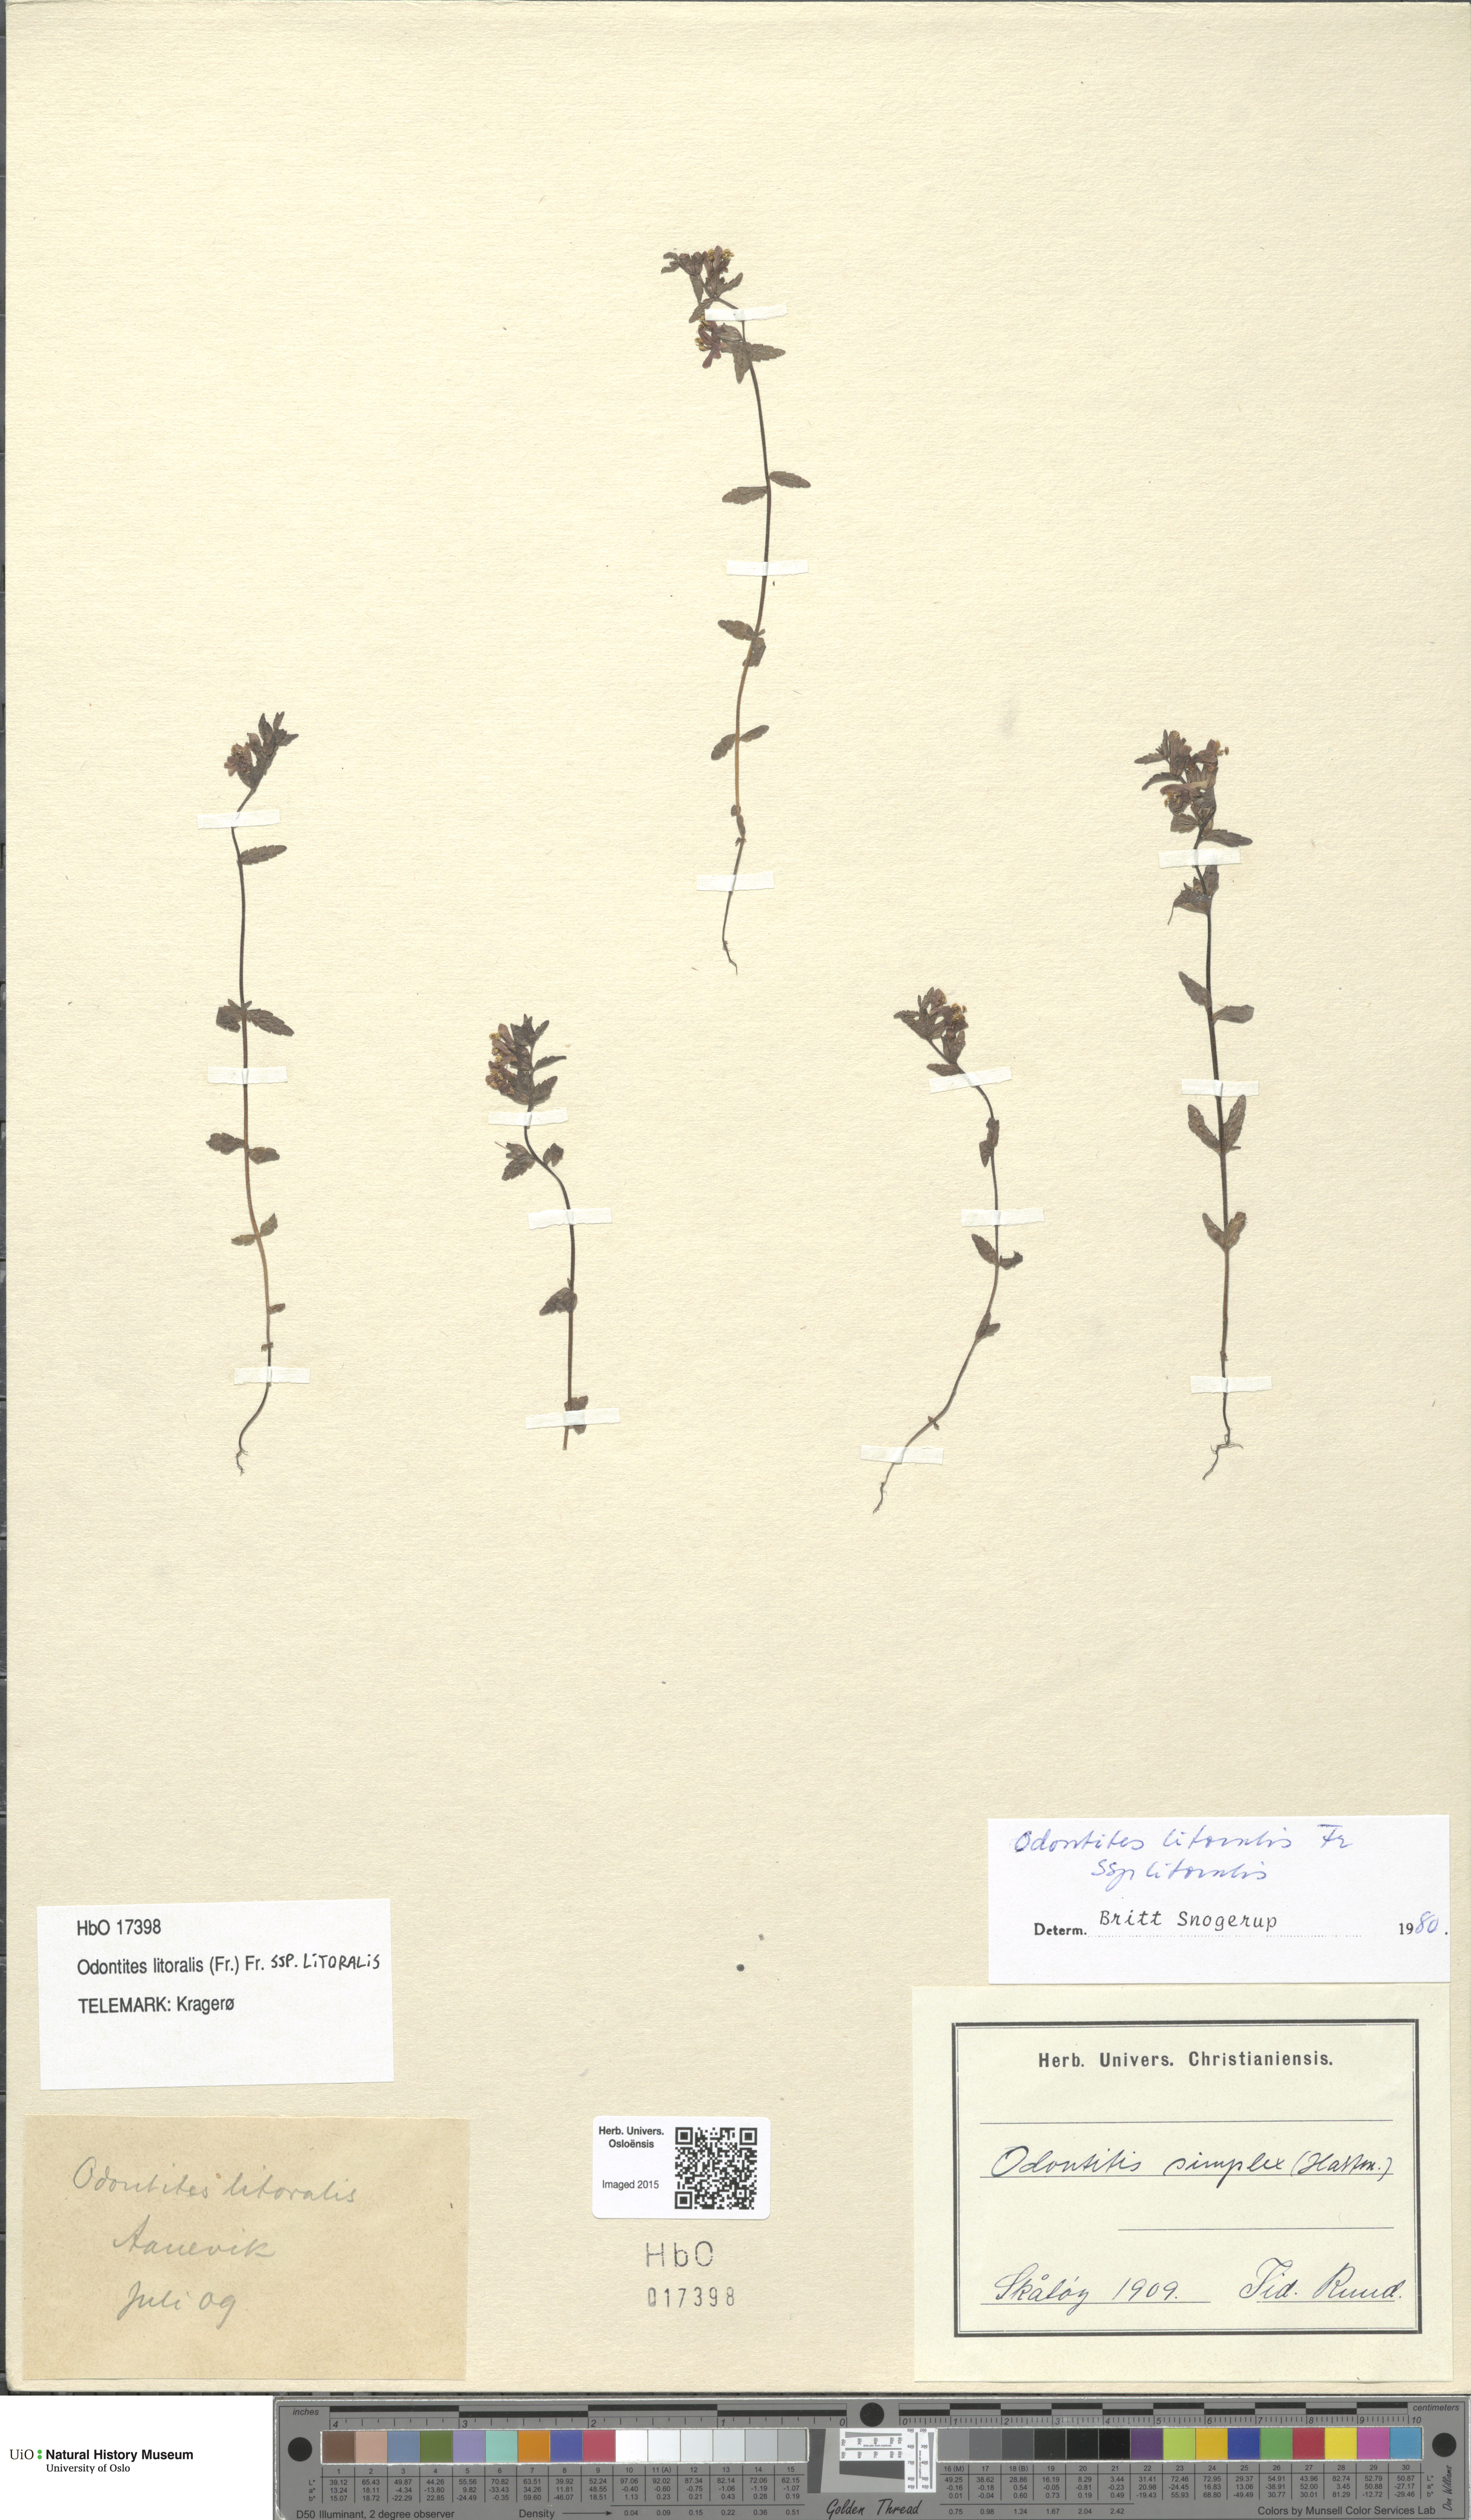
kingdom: Plantae
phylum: Tracheophyta
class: Magnoliopsida
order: Lamiales
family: Orobanchaceae
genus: Odontites
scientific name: Odontites litoralis
